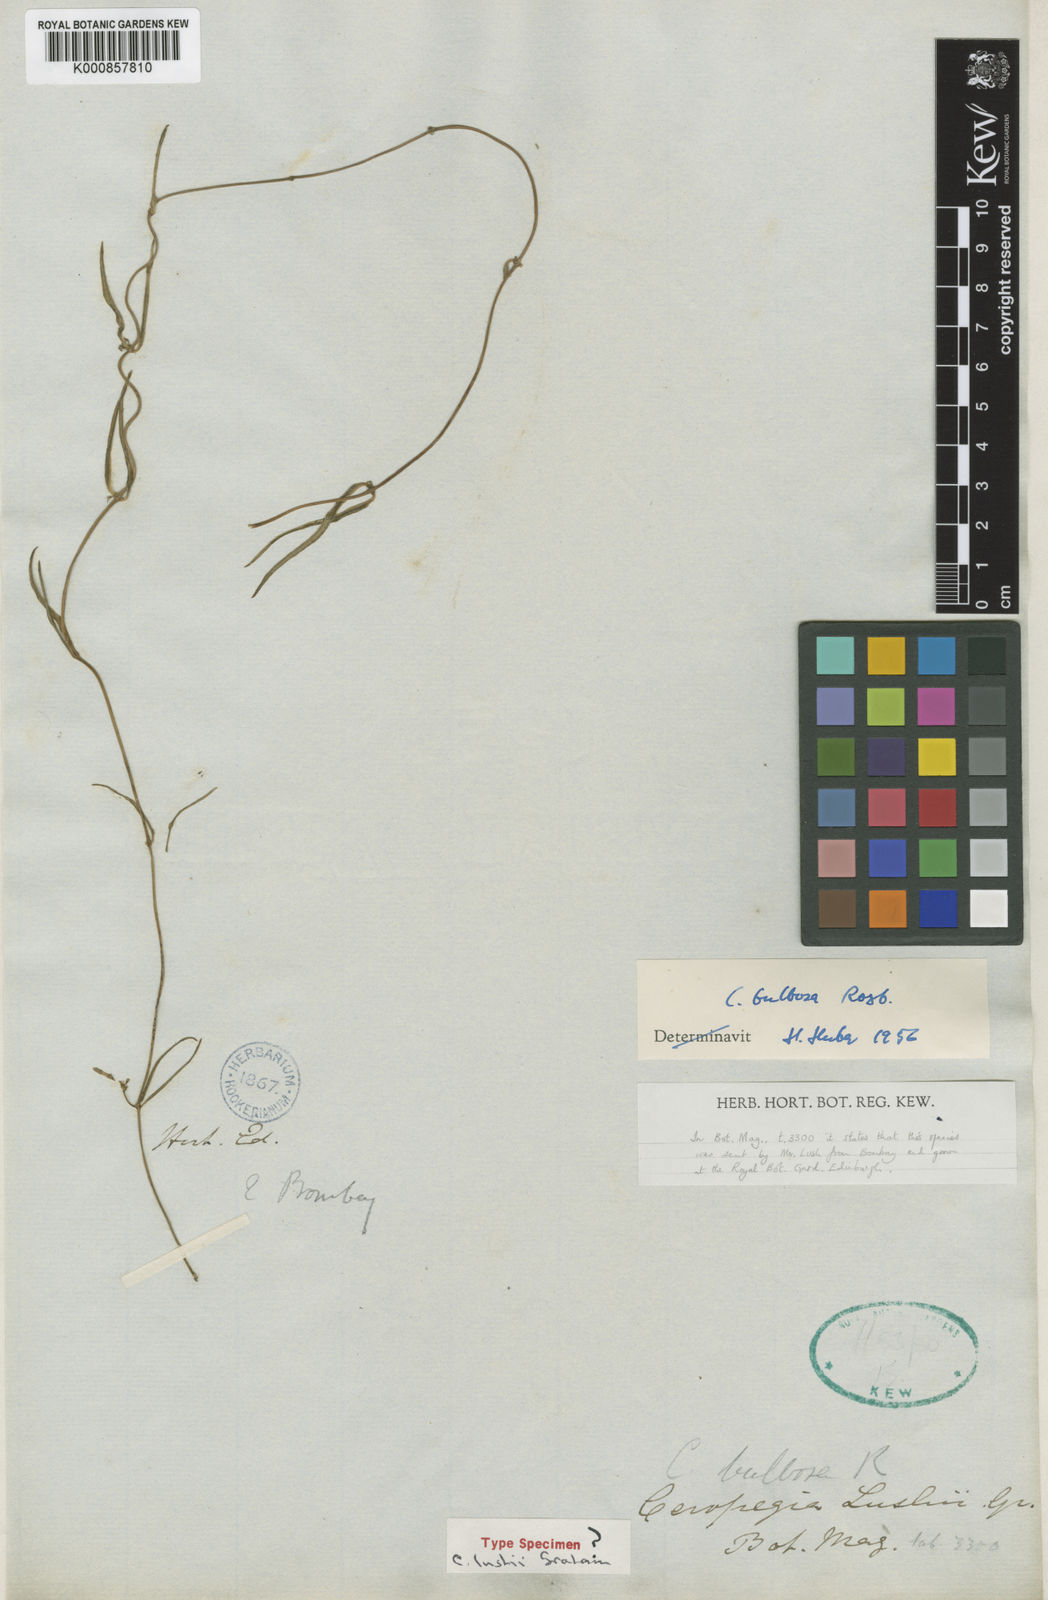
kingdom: Plantae
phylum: Tracheophyta
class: Magnoliopsida
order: Gentianales
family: Apocynaceae
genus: Ceropegia
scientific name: Ceropegia bulbosa
